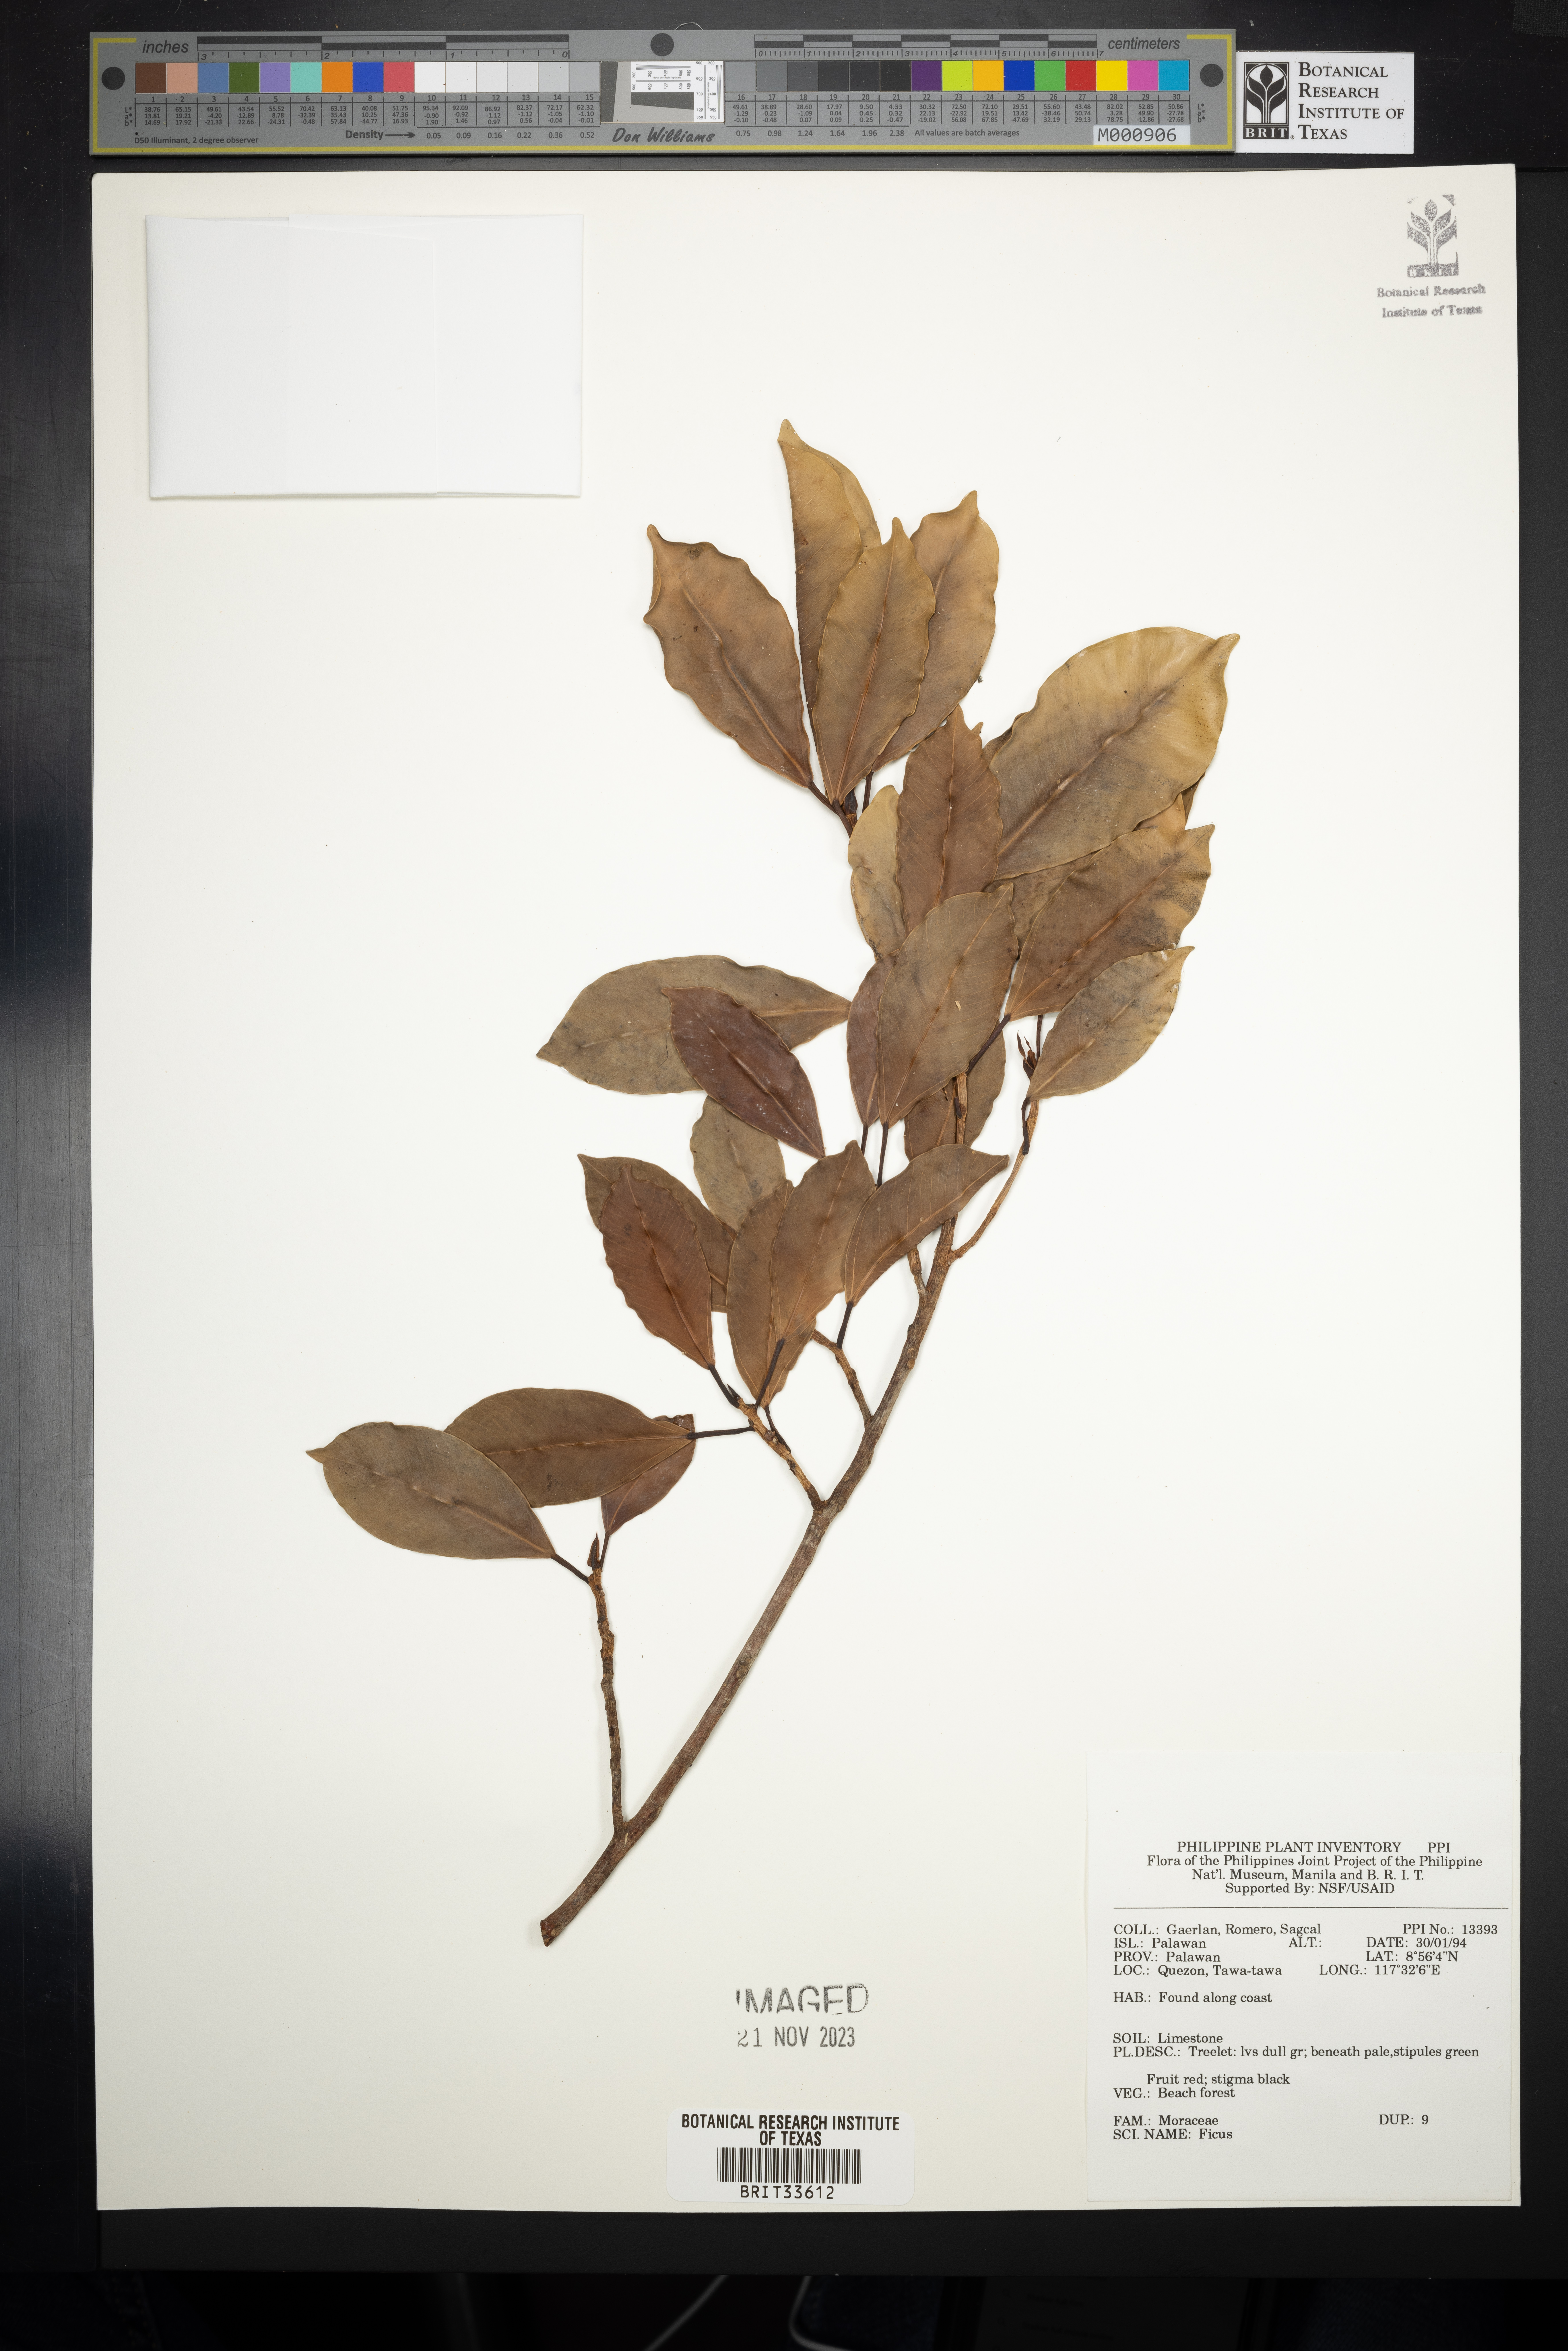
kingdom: Plantae
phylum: Tracheophyta
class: Magnoliopsida
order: Rosales
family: Moraceae
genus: Ficus
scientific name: Ficus
